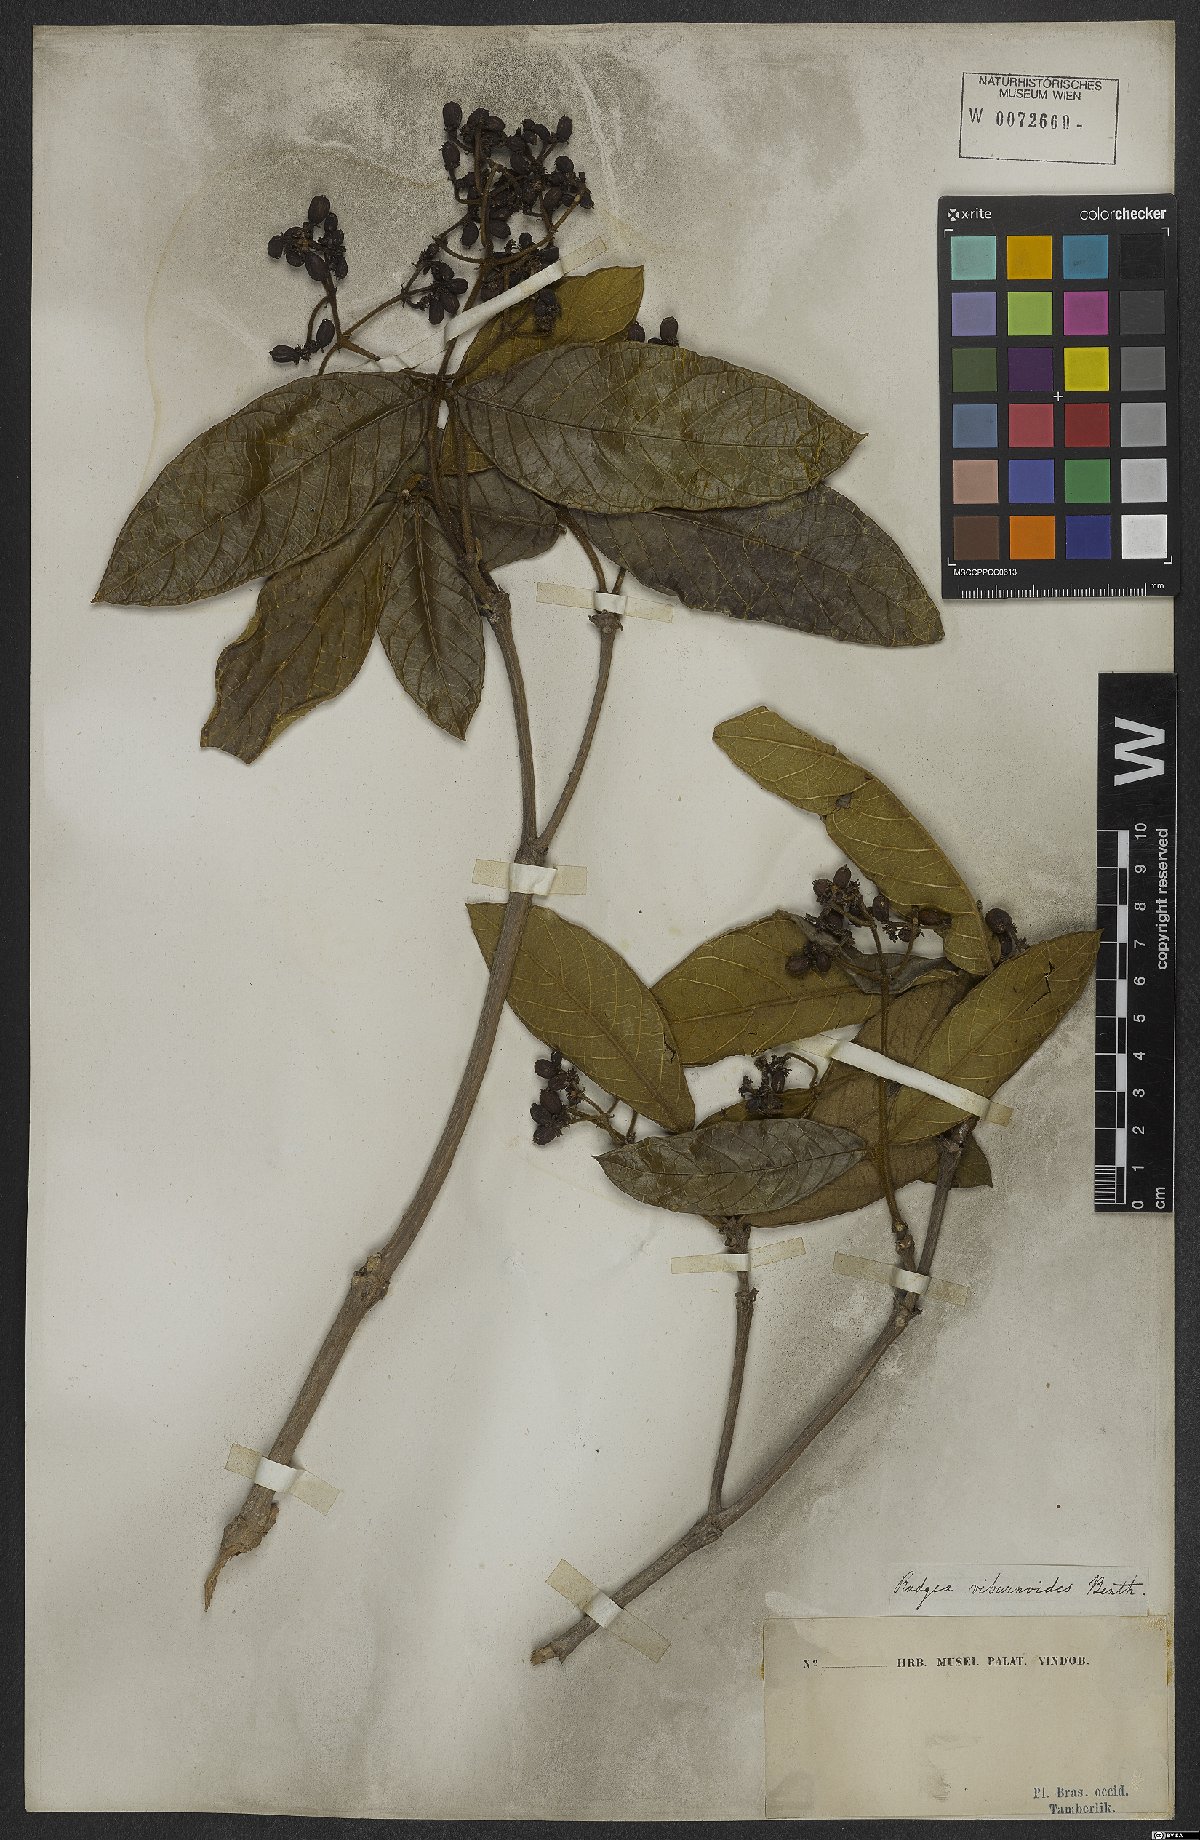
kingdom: Plantae
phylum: Tracheophyta
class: Magnoliopsida
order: Gentianales
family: Rubiaceae
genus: Rudgea
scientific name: Rudgea viburnoides
